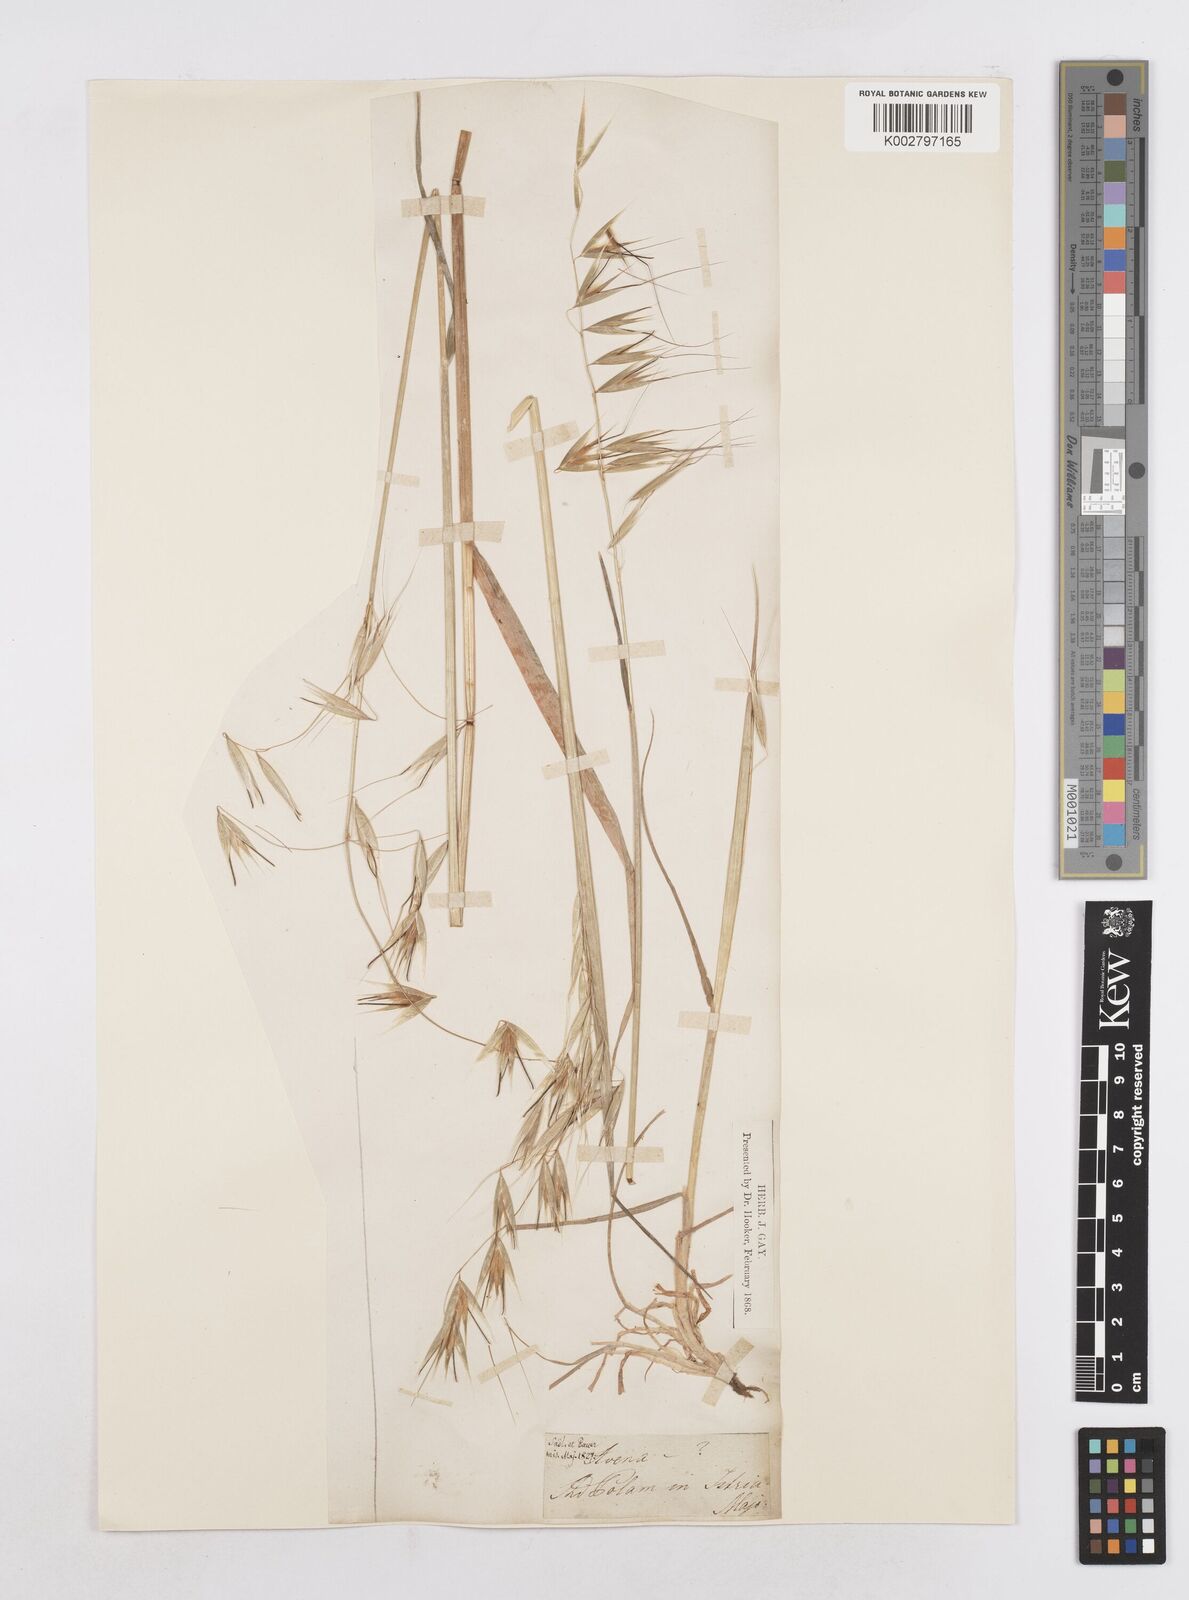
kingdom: Plantae
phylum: Tracheophyta
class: Liliopsida
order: Poales
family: Poaceae
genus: Avena
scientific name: Avena
